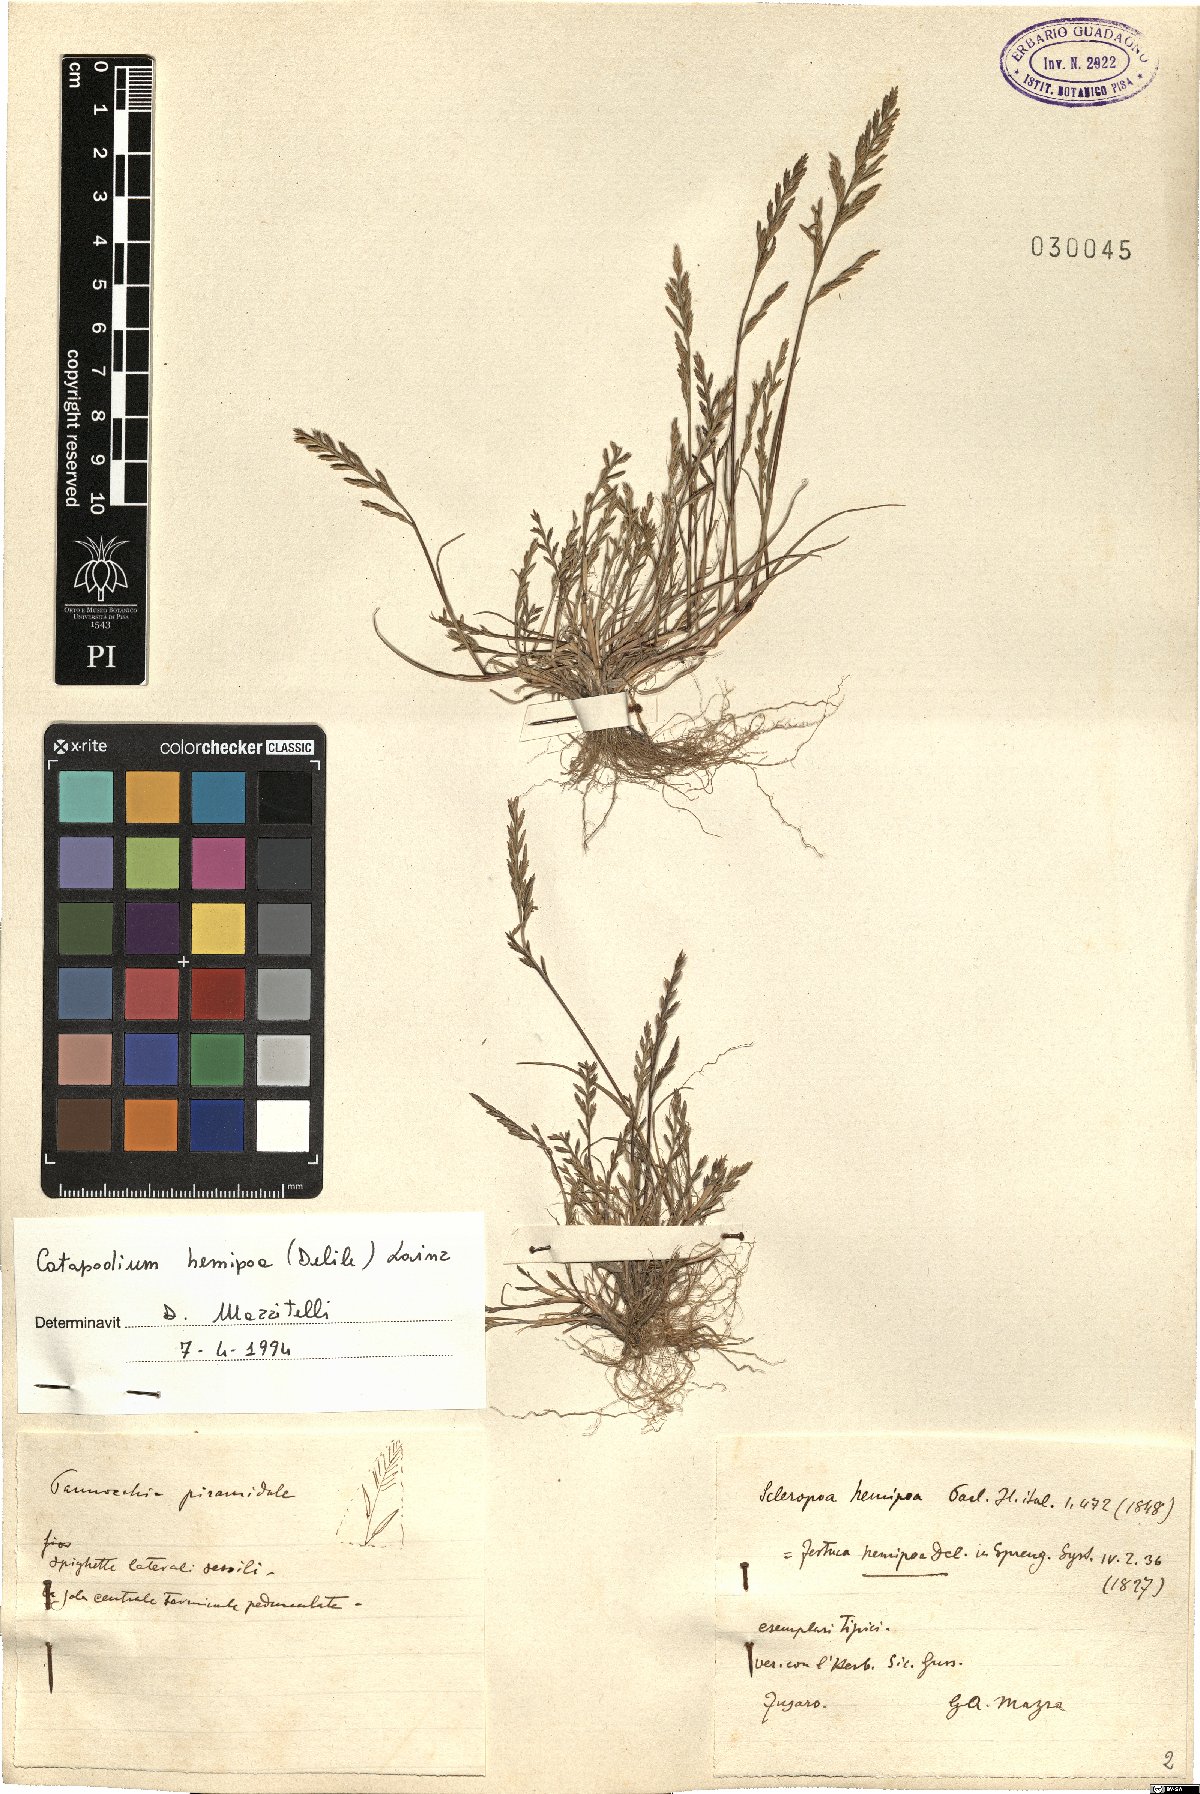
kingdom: Plantae
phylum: Tracheophyta
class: Liliopsida
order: Poales
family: Poaceae
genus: Catapodium
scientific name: Catapodium hemipoa
